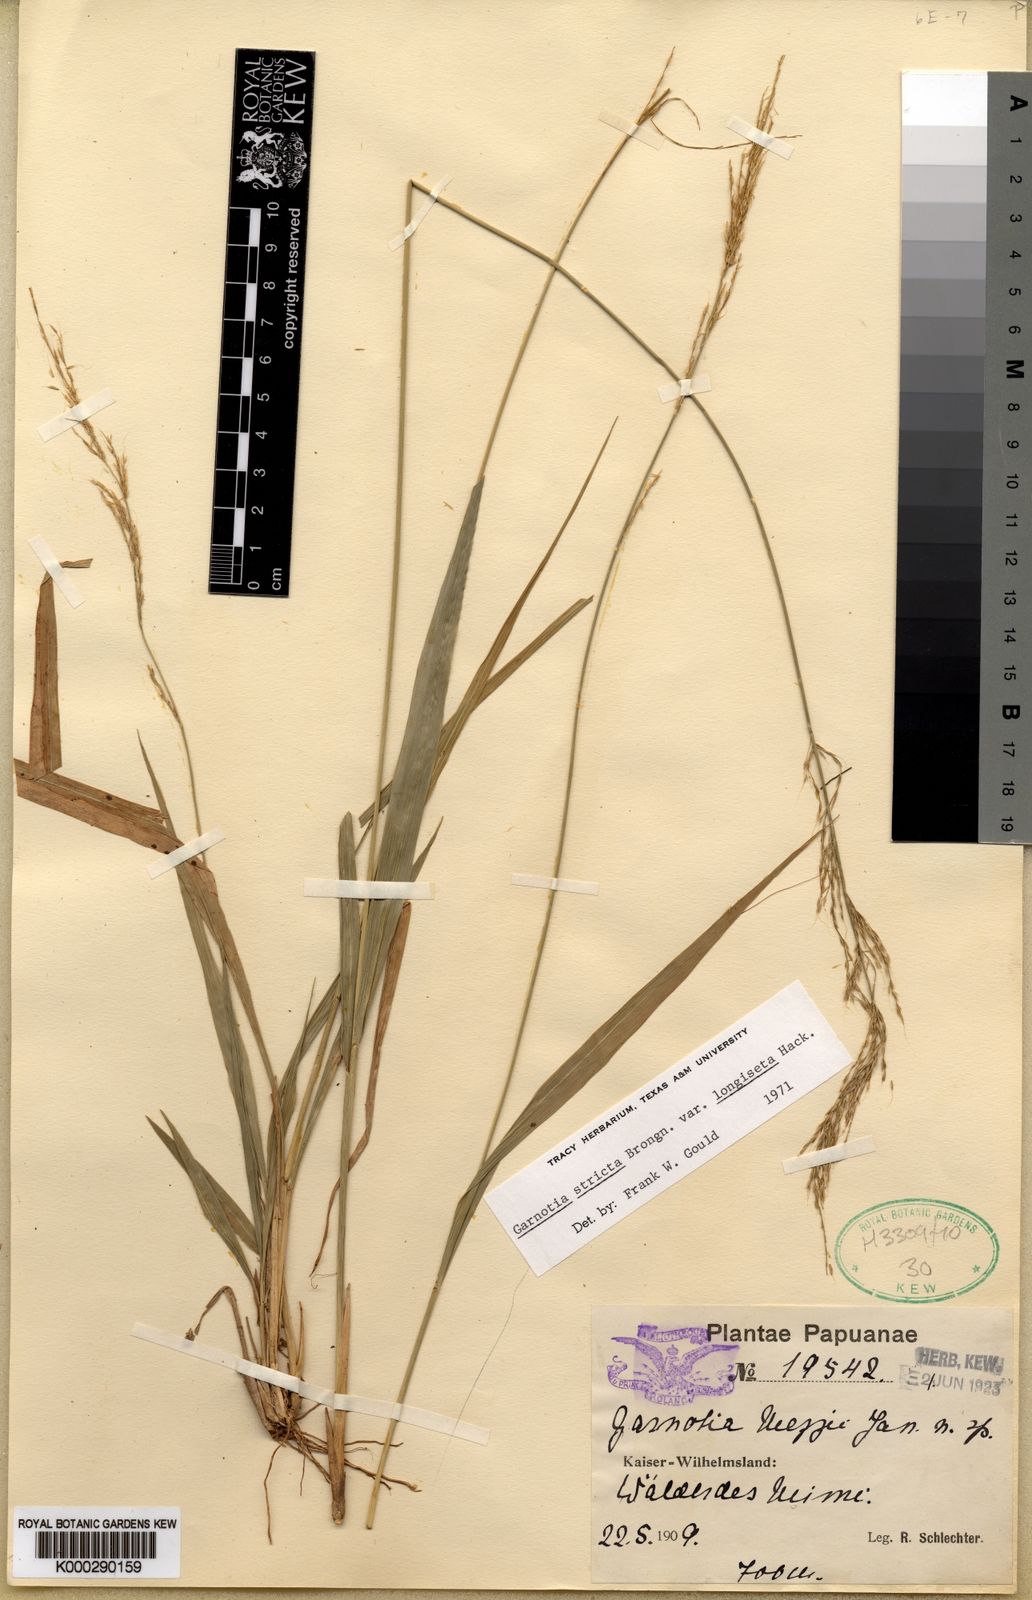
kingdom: Plantae
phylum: Tracheophyta
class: Liliopsida
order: Poales
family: Poaceae
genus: Garnotia
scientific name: Garnotia stricta
